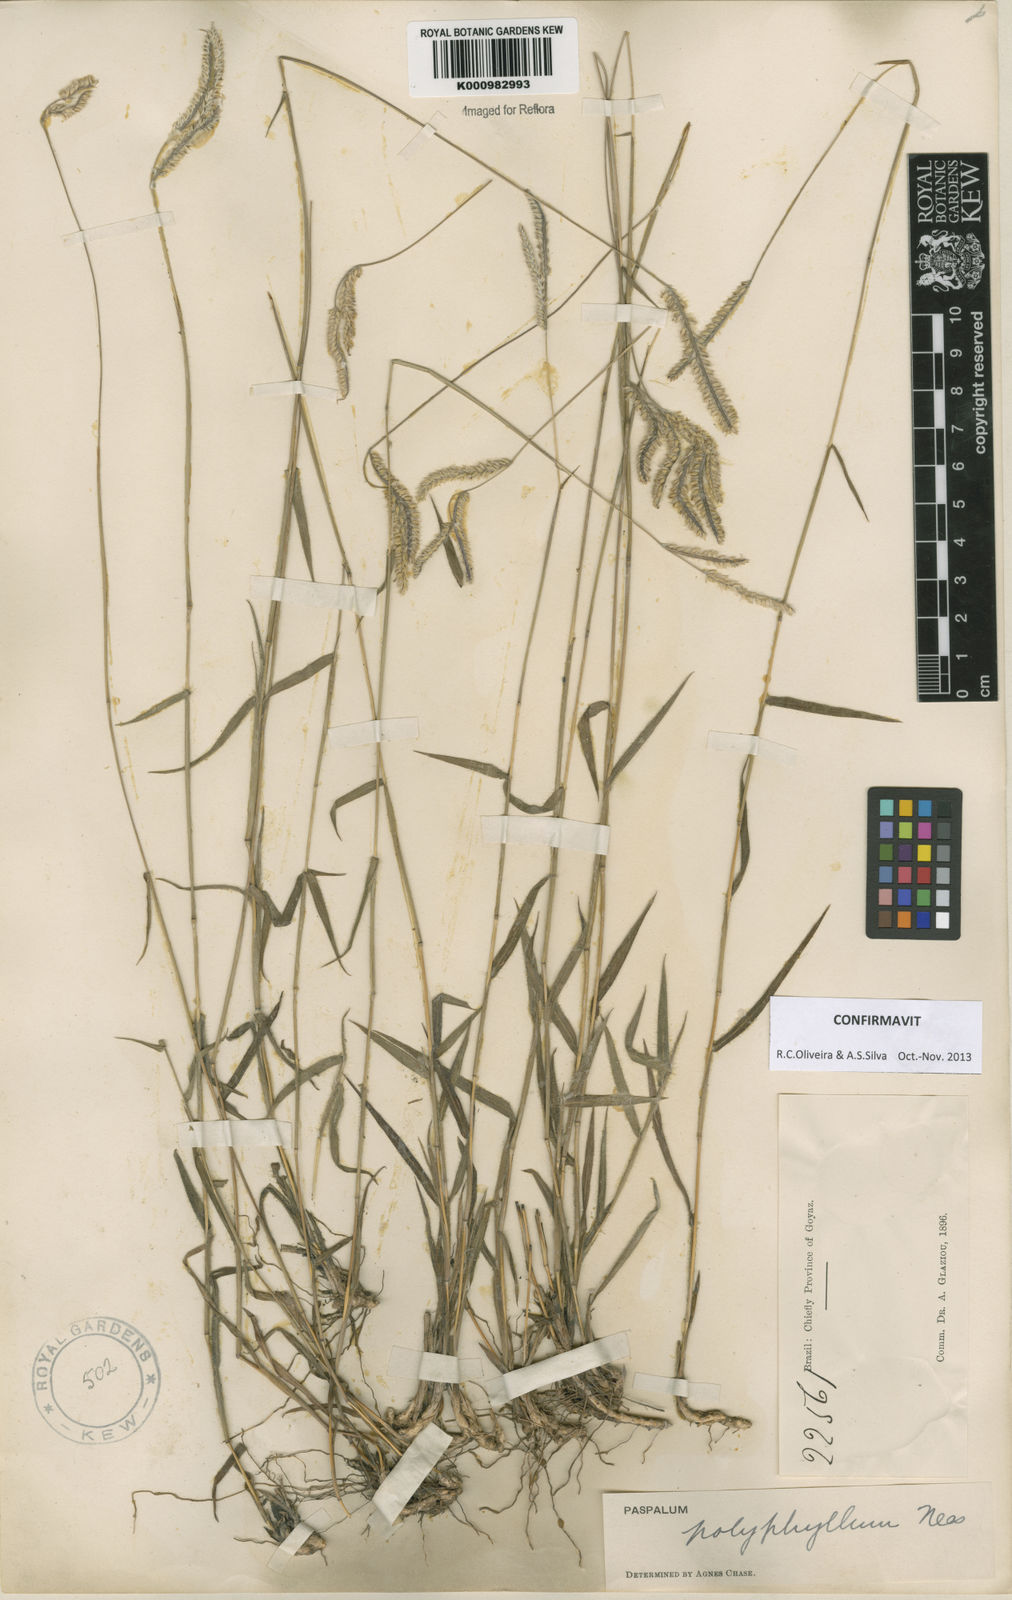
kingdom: Plantae
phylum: Tracheophyta
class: Liliopsida
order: Poales
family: Poaceae
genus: Paspalum
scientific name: Paspalum
